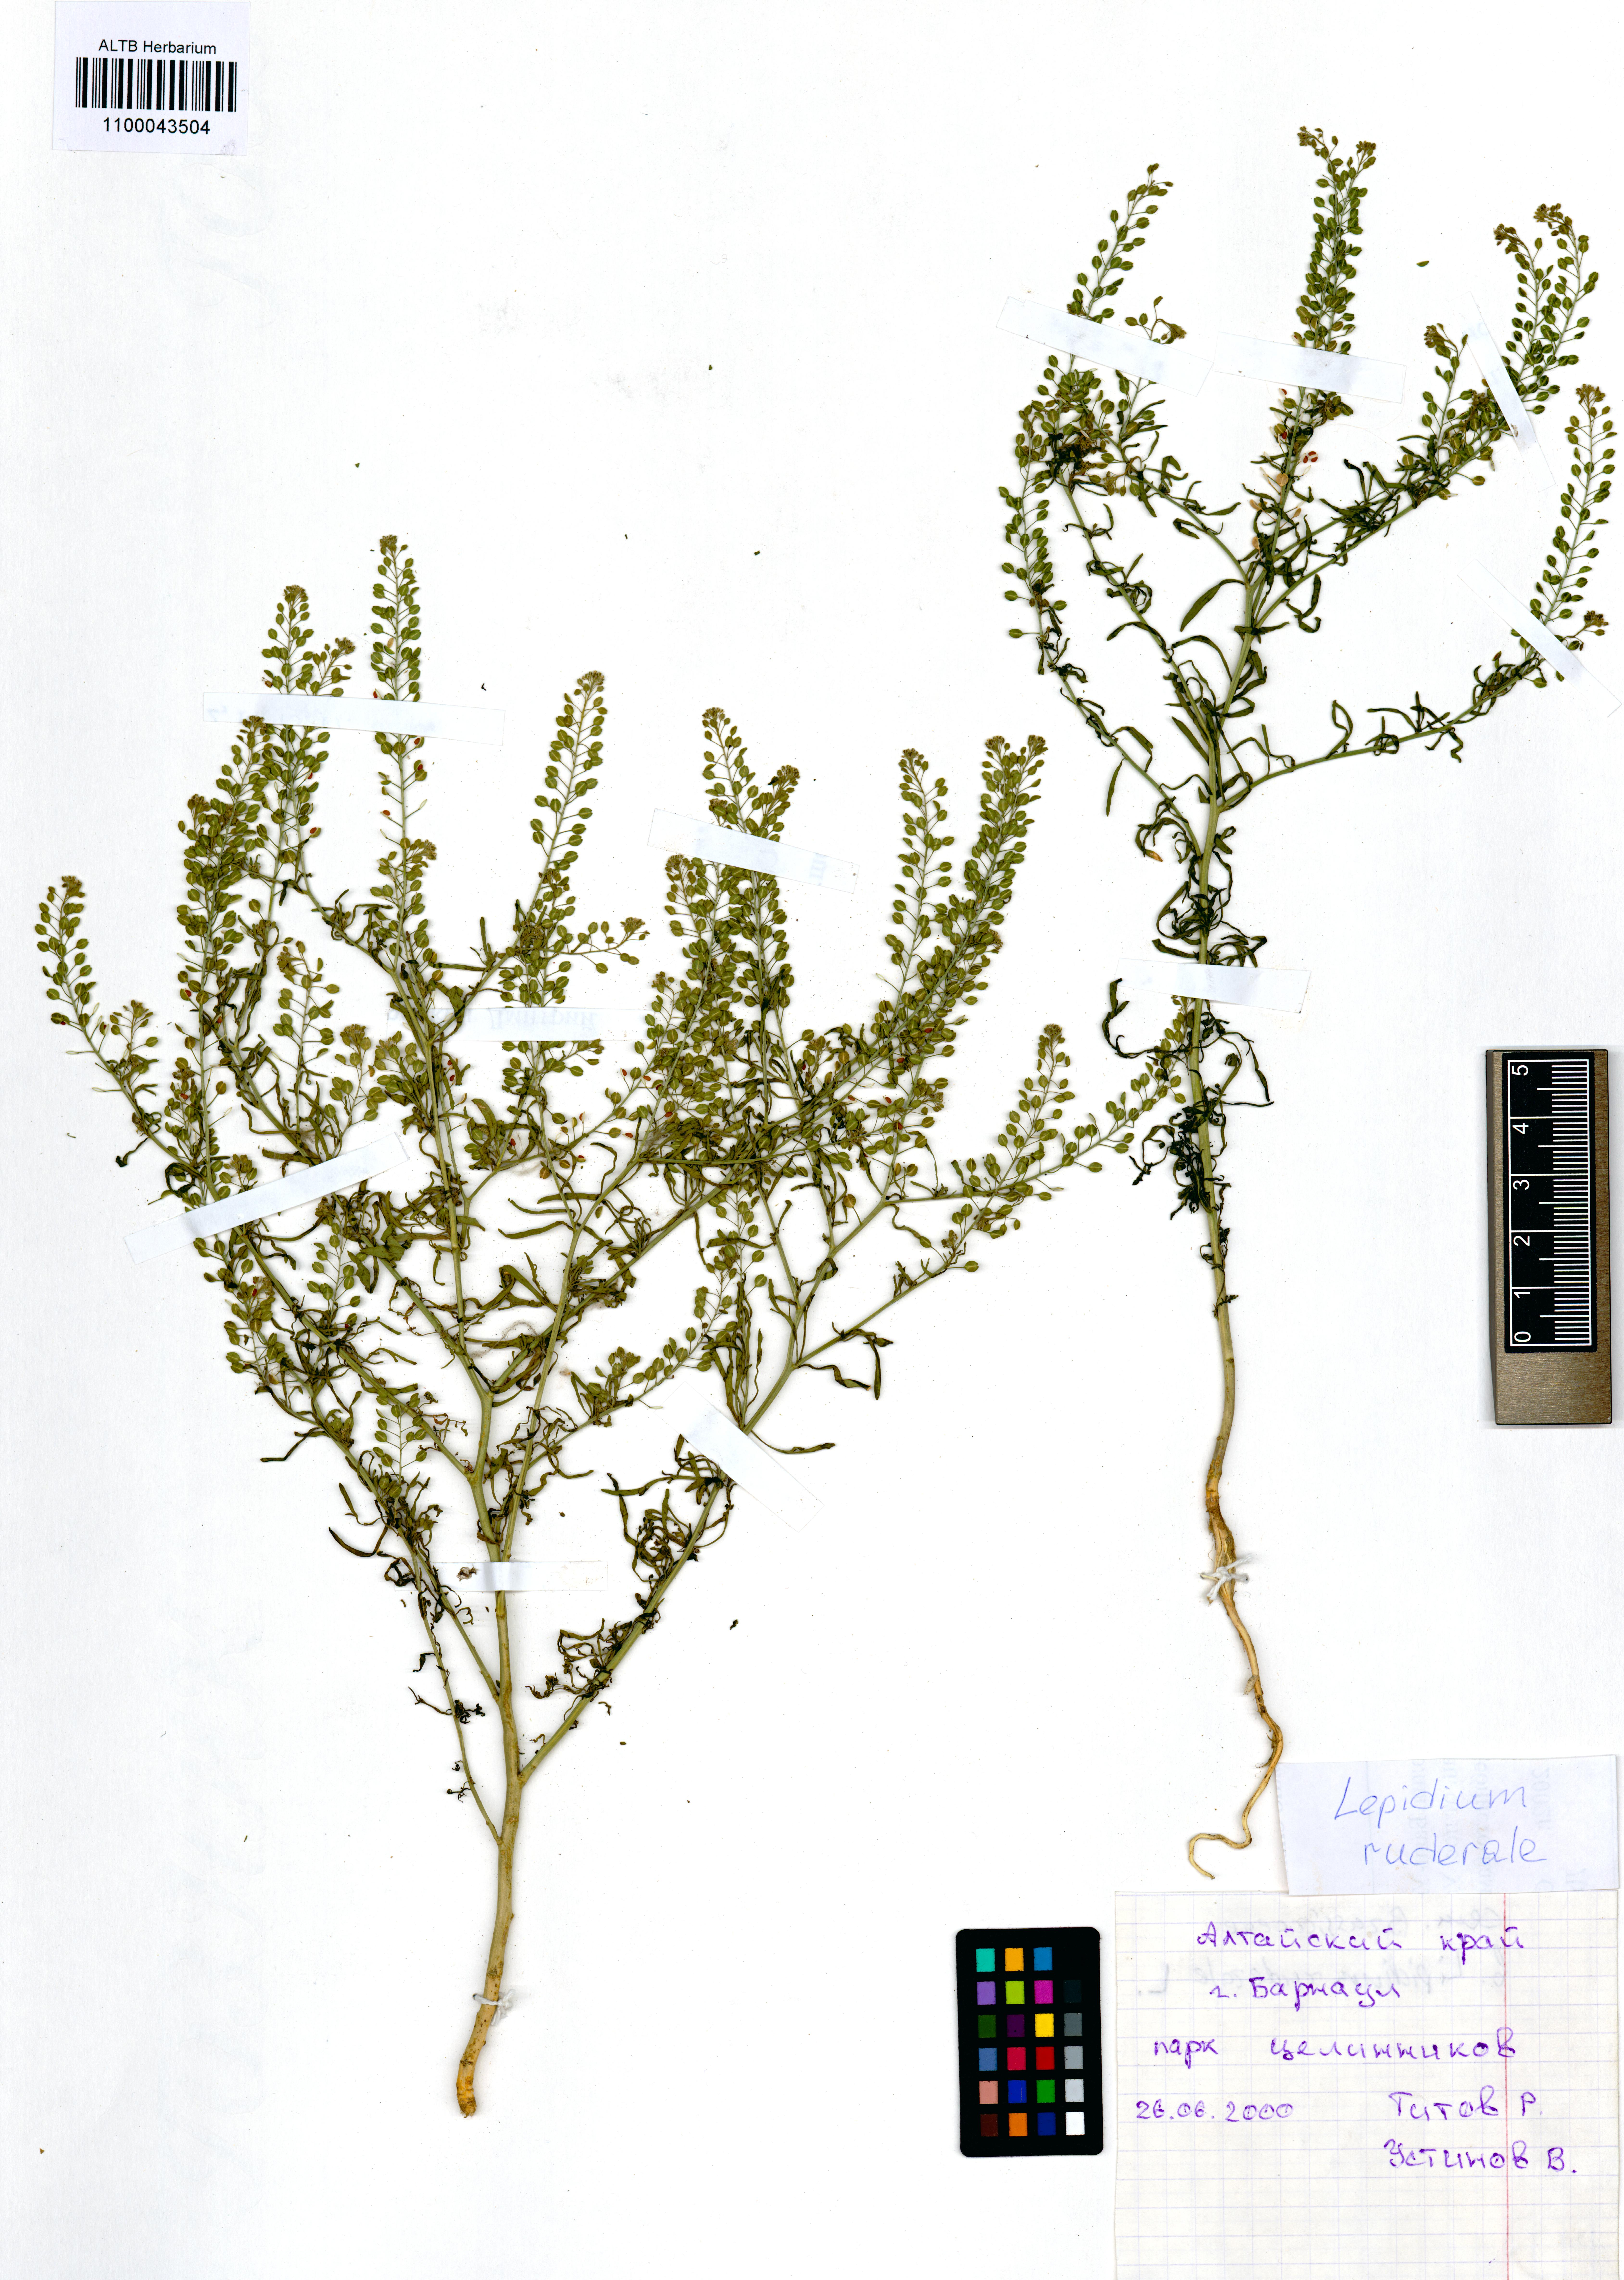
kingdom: Plantae
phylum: Tracheophyta
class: Magnoliopsida
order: Brassicales
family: Brassicaceae
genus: Lepidium
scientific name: Lepidium ruderale
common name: Narrow-leaved pepperwort
